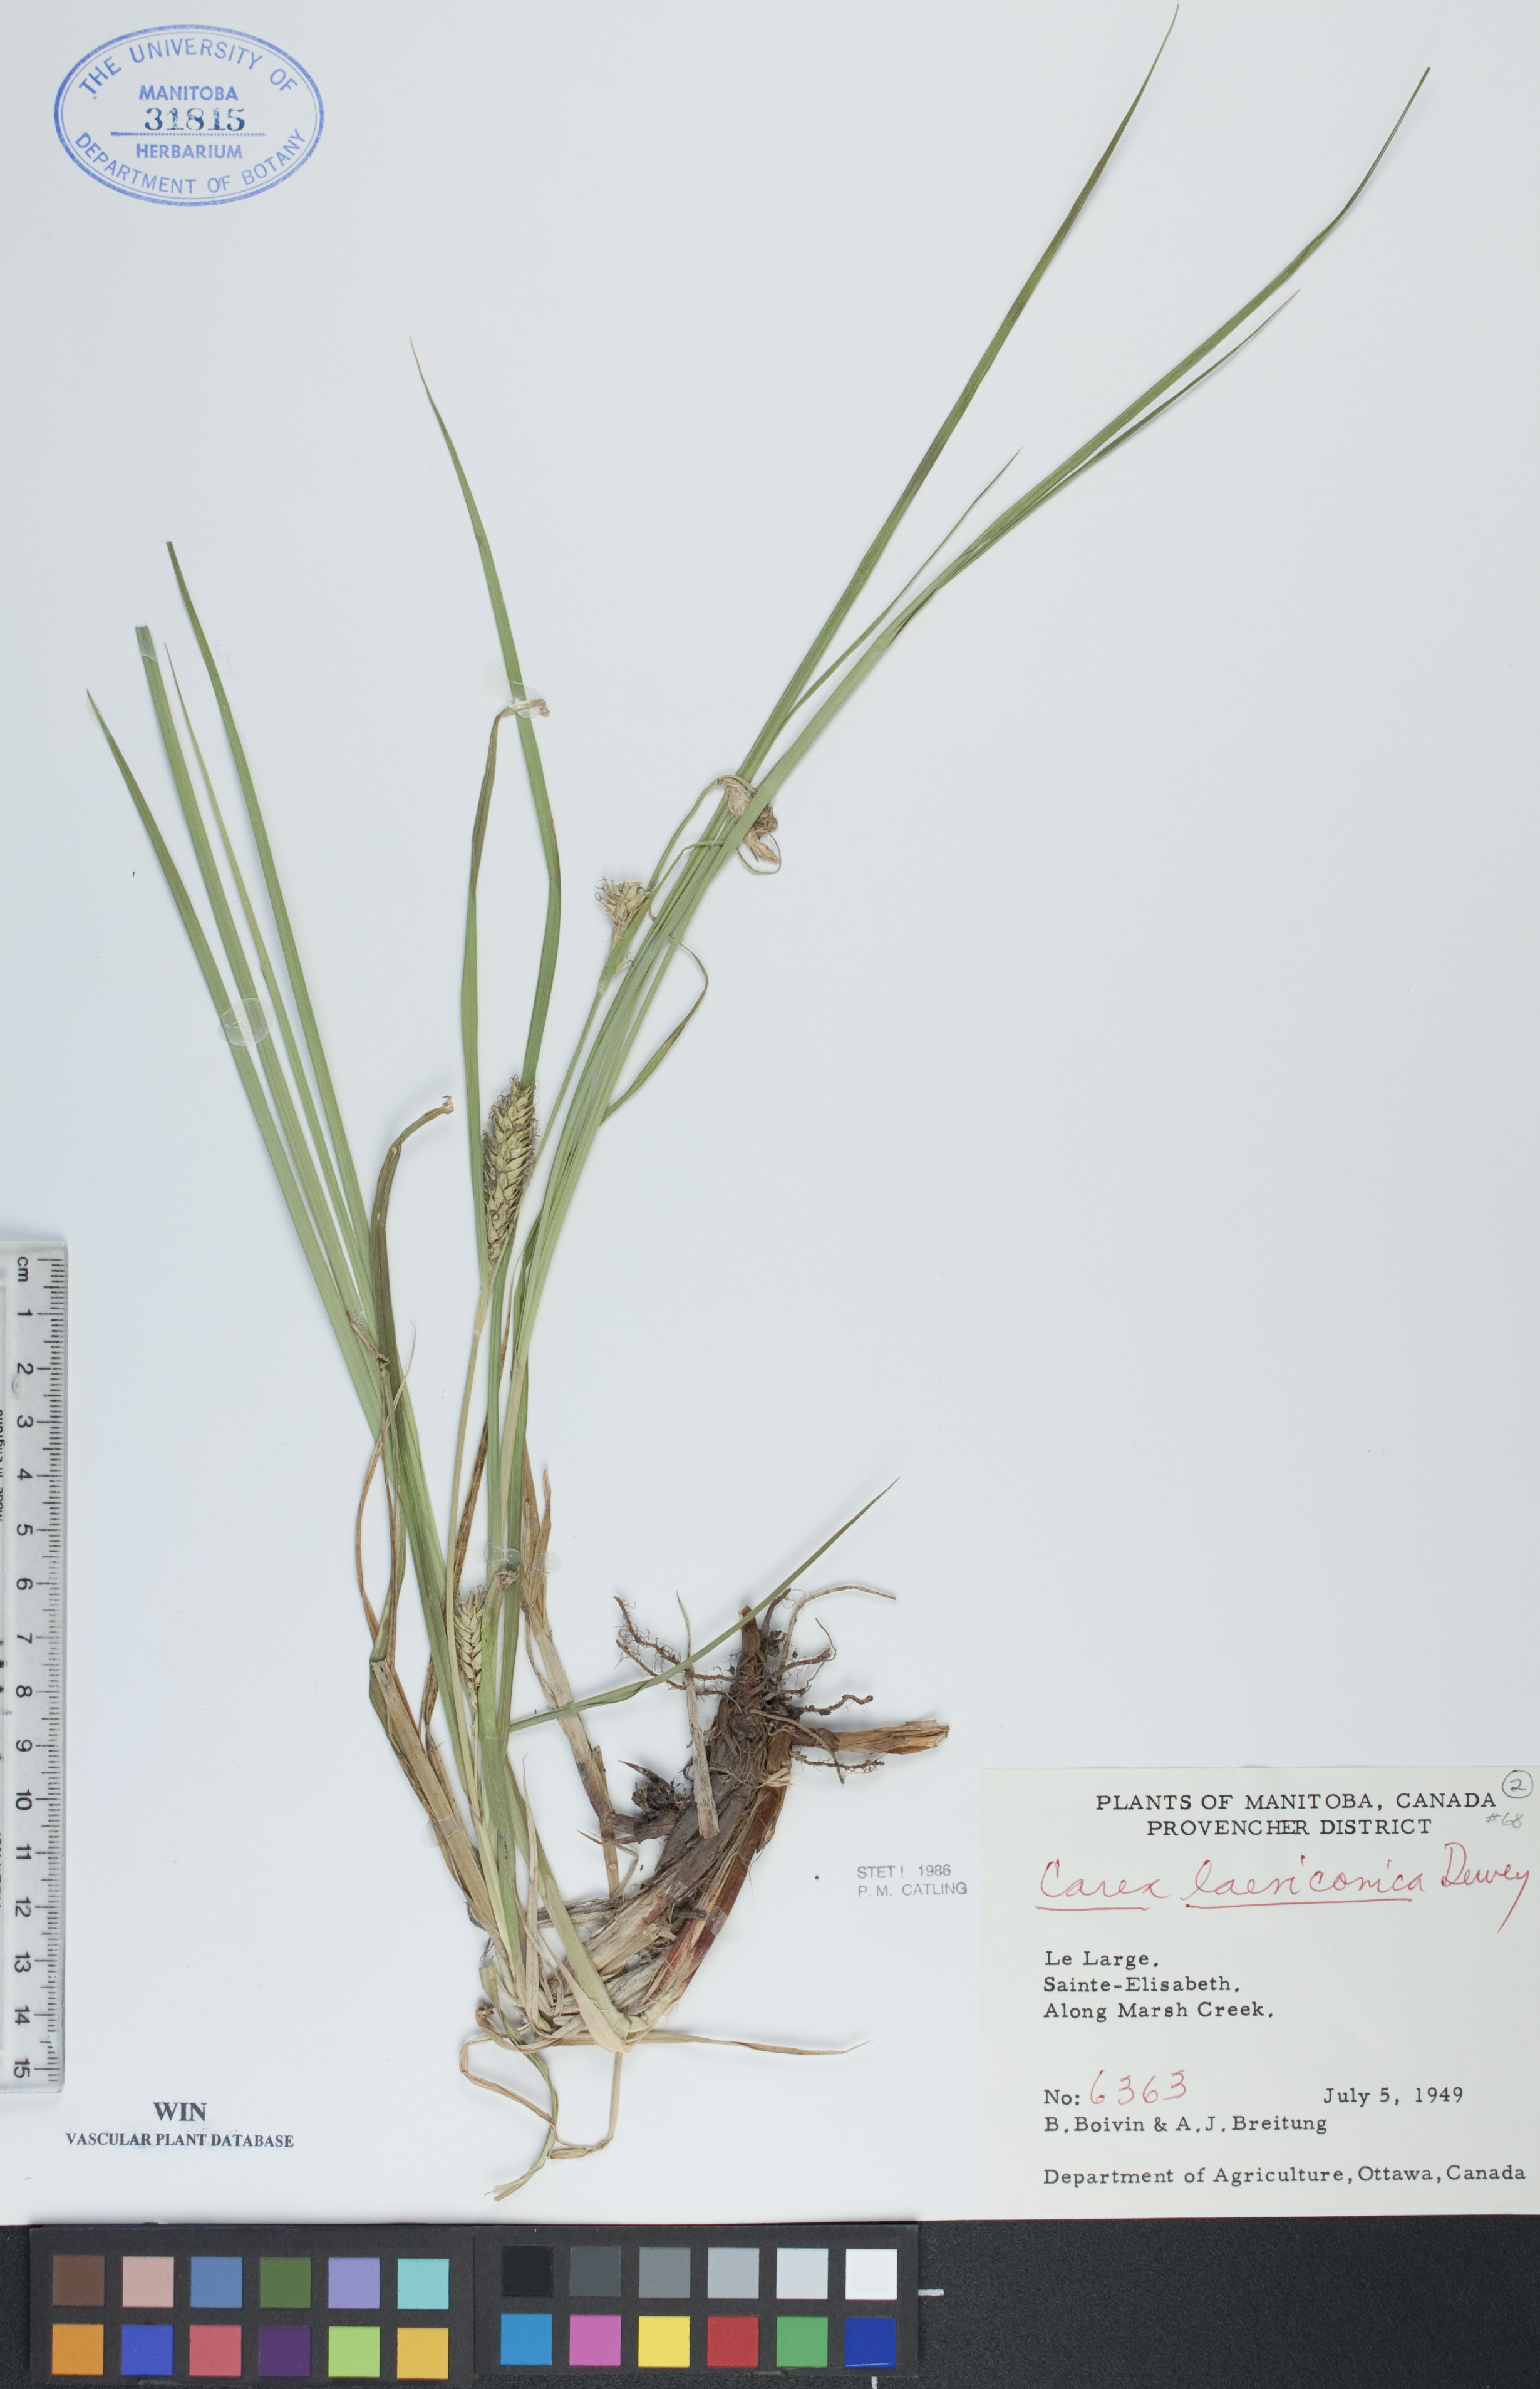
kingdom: Plantae
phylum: Tracheophyta
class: Liliopsida
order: Poales
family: Cyperaceae
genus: Carex
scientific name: Carex laeviconica
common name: Plains slough sedge
